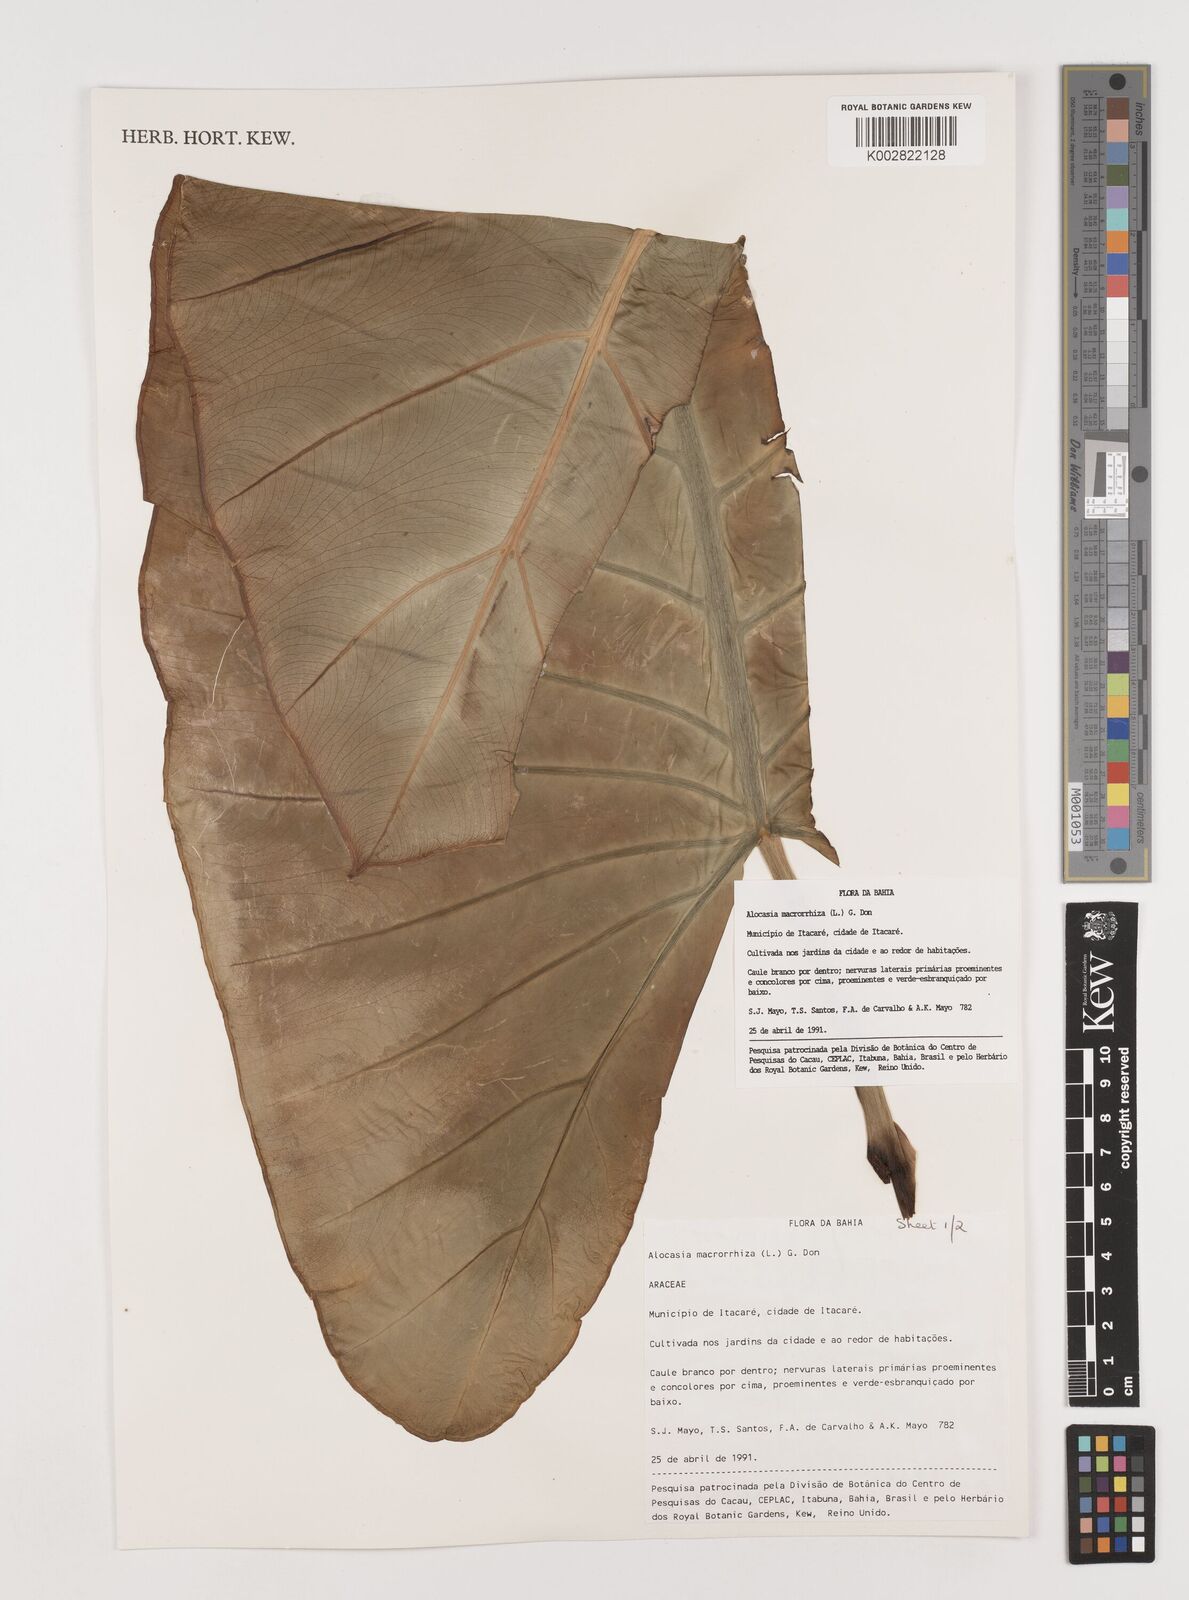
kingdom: Plantae
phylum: Tracheophyta
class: Liliopsida
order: Alismatales
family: Araceae
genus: Alocasia
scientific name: Alocasia macrorrhizos
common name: Giant taro
